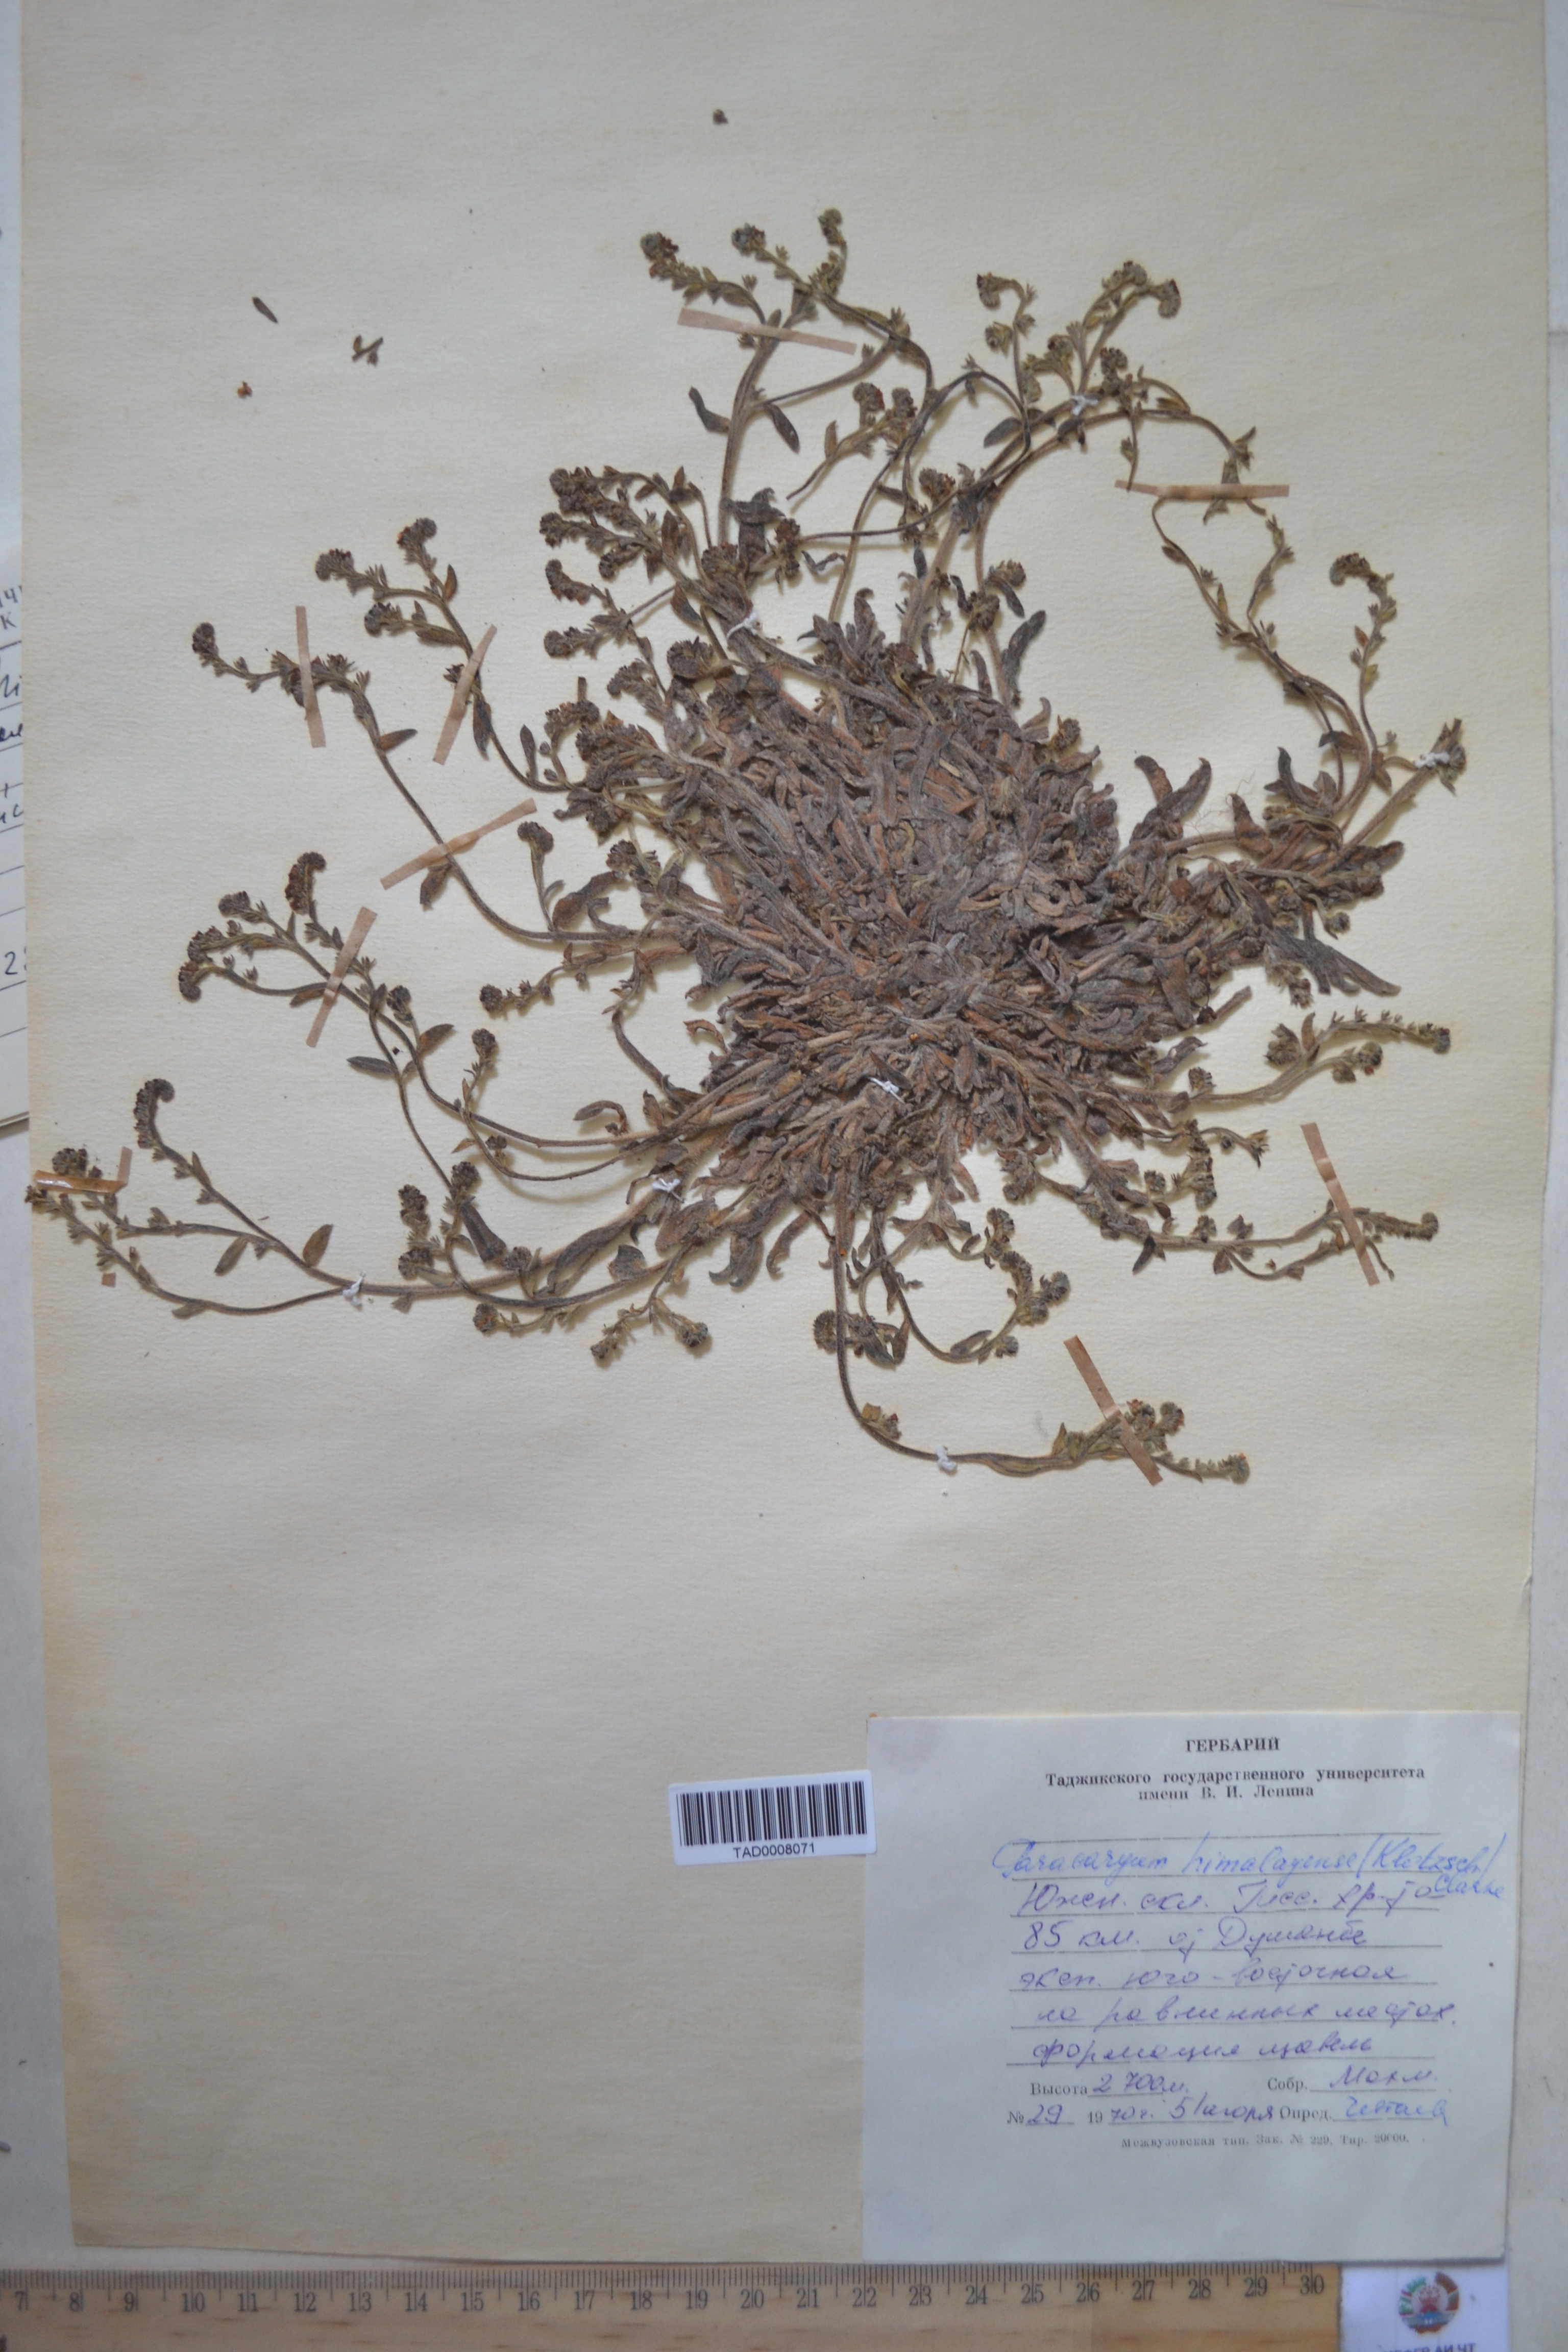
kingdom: Plantae
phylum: Tracheophyta
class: Magnoliopsida
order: Boraginales
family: Boraginaceae
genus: Paracaryum
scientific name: Paracaryum himalayense
